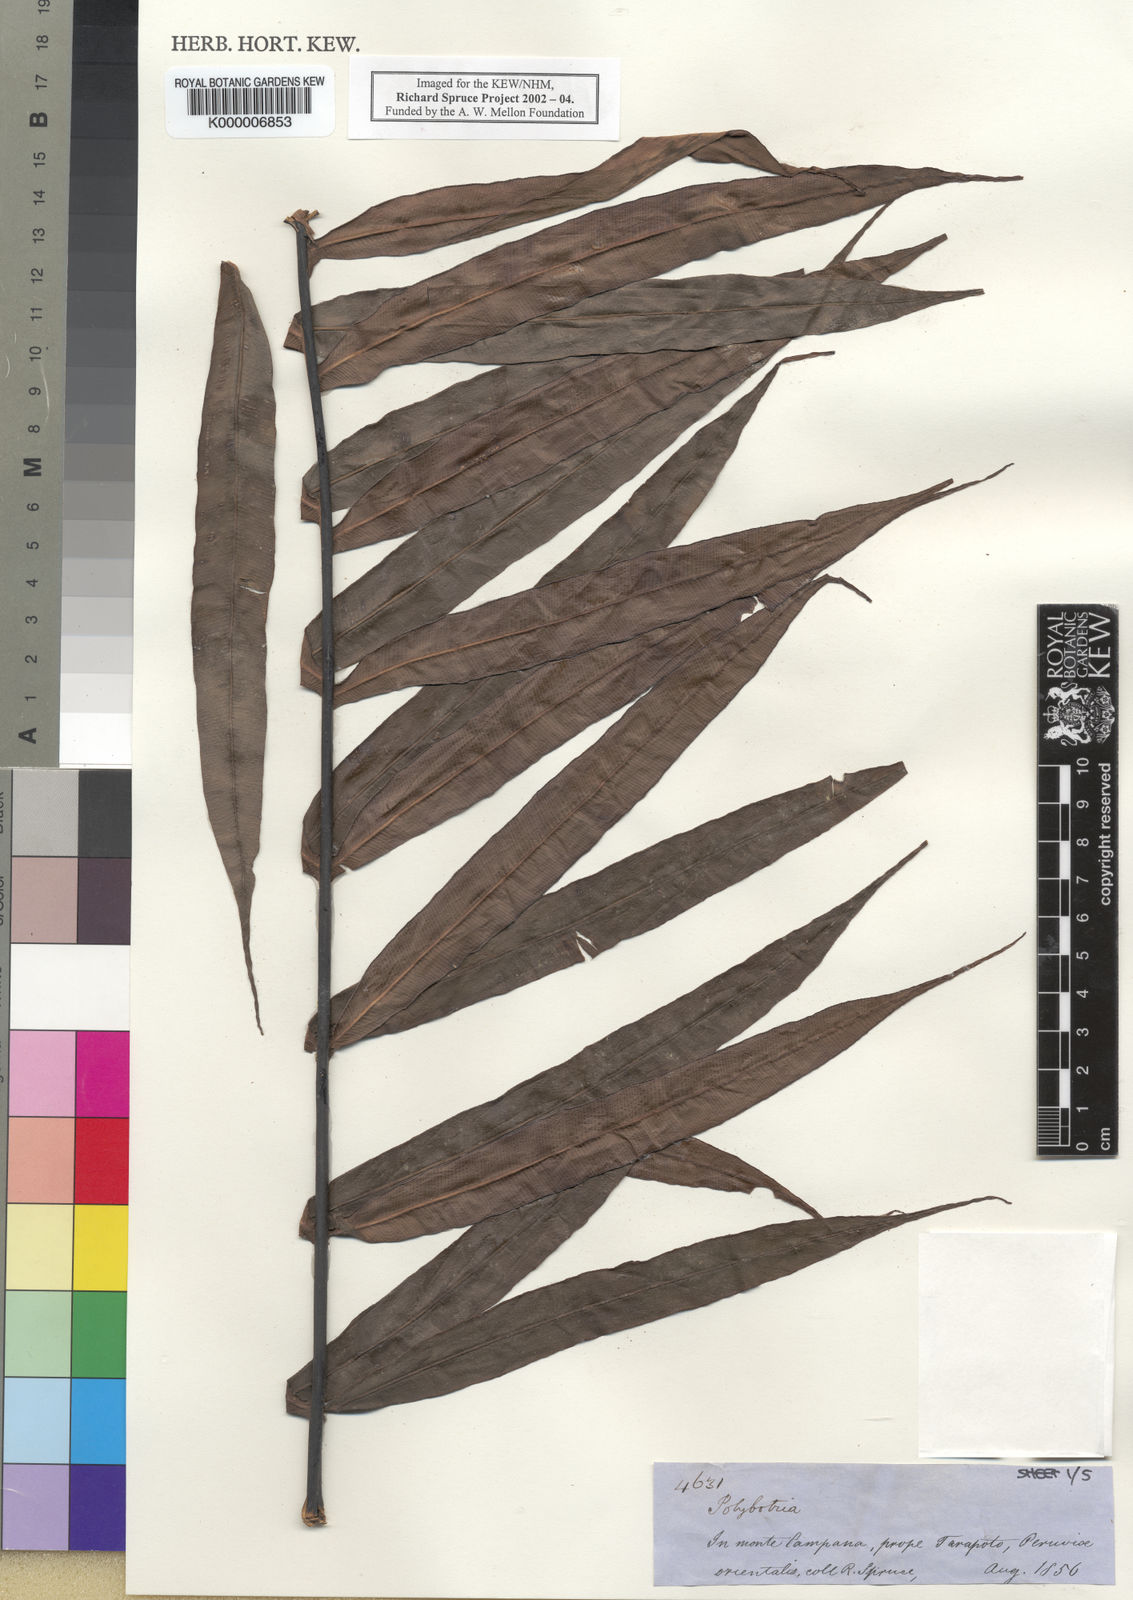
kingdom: Plantae
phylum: Tracheophyta
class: Polypodiopsida
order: Polypodiales
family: Dryopteridaceae
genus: Polybotrya
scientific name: Polybotrya
